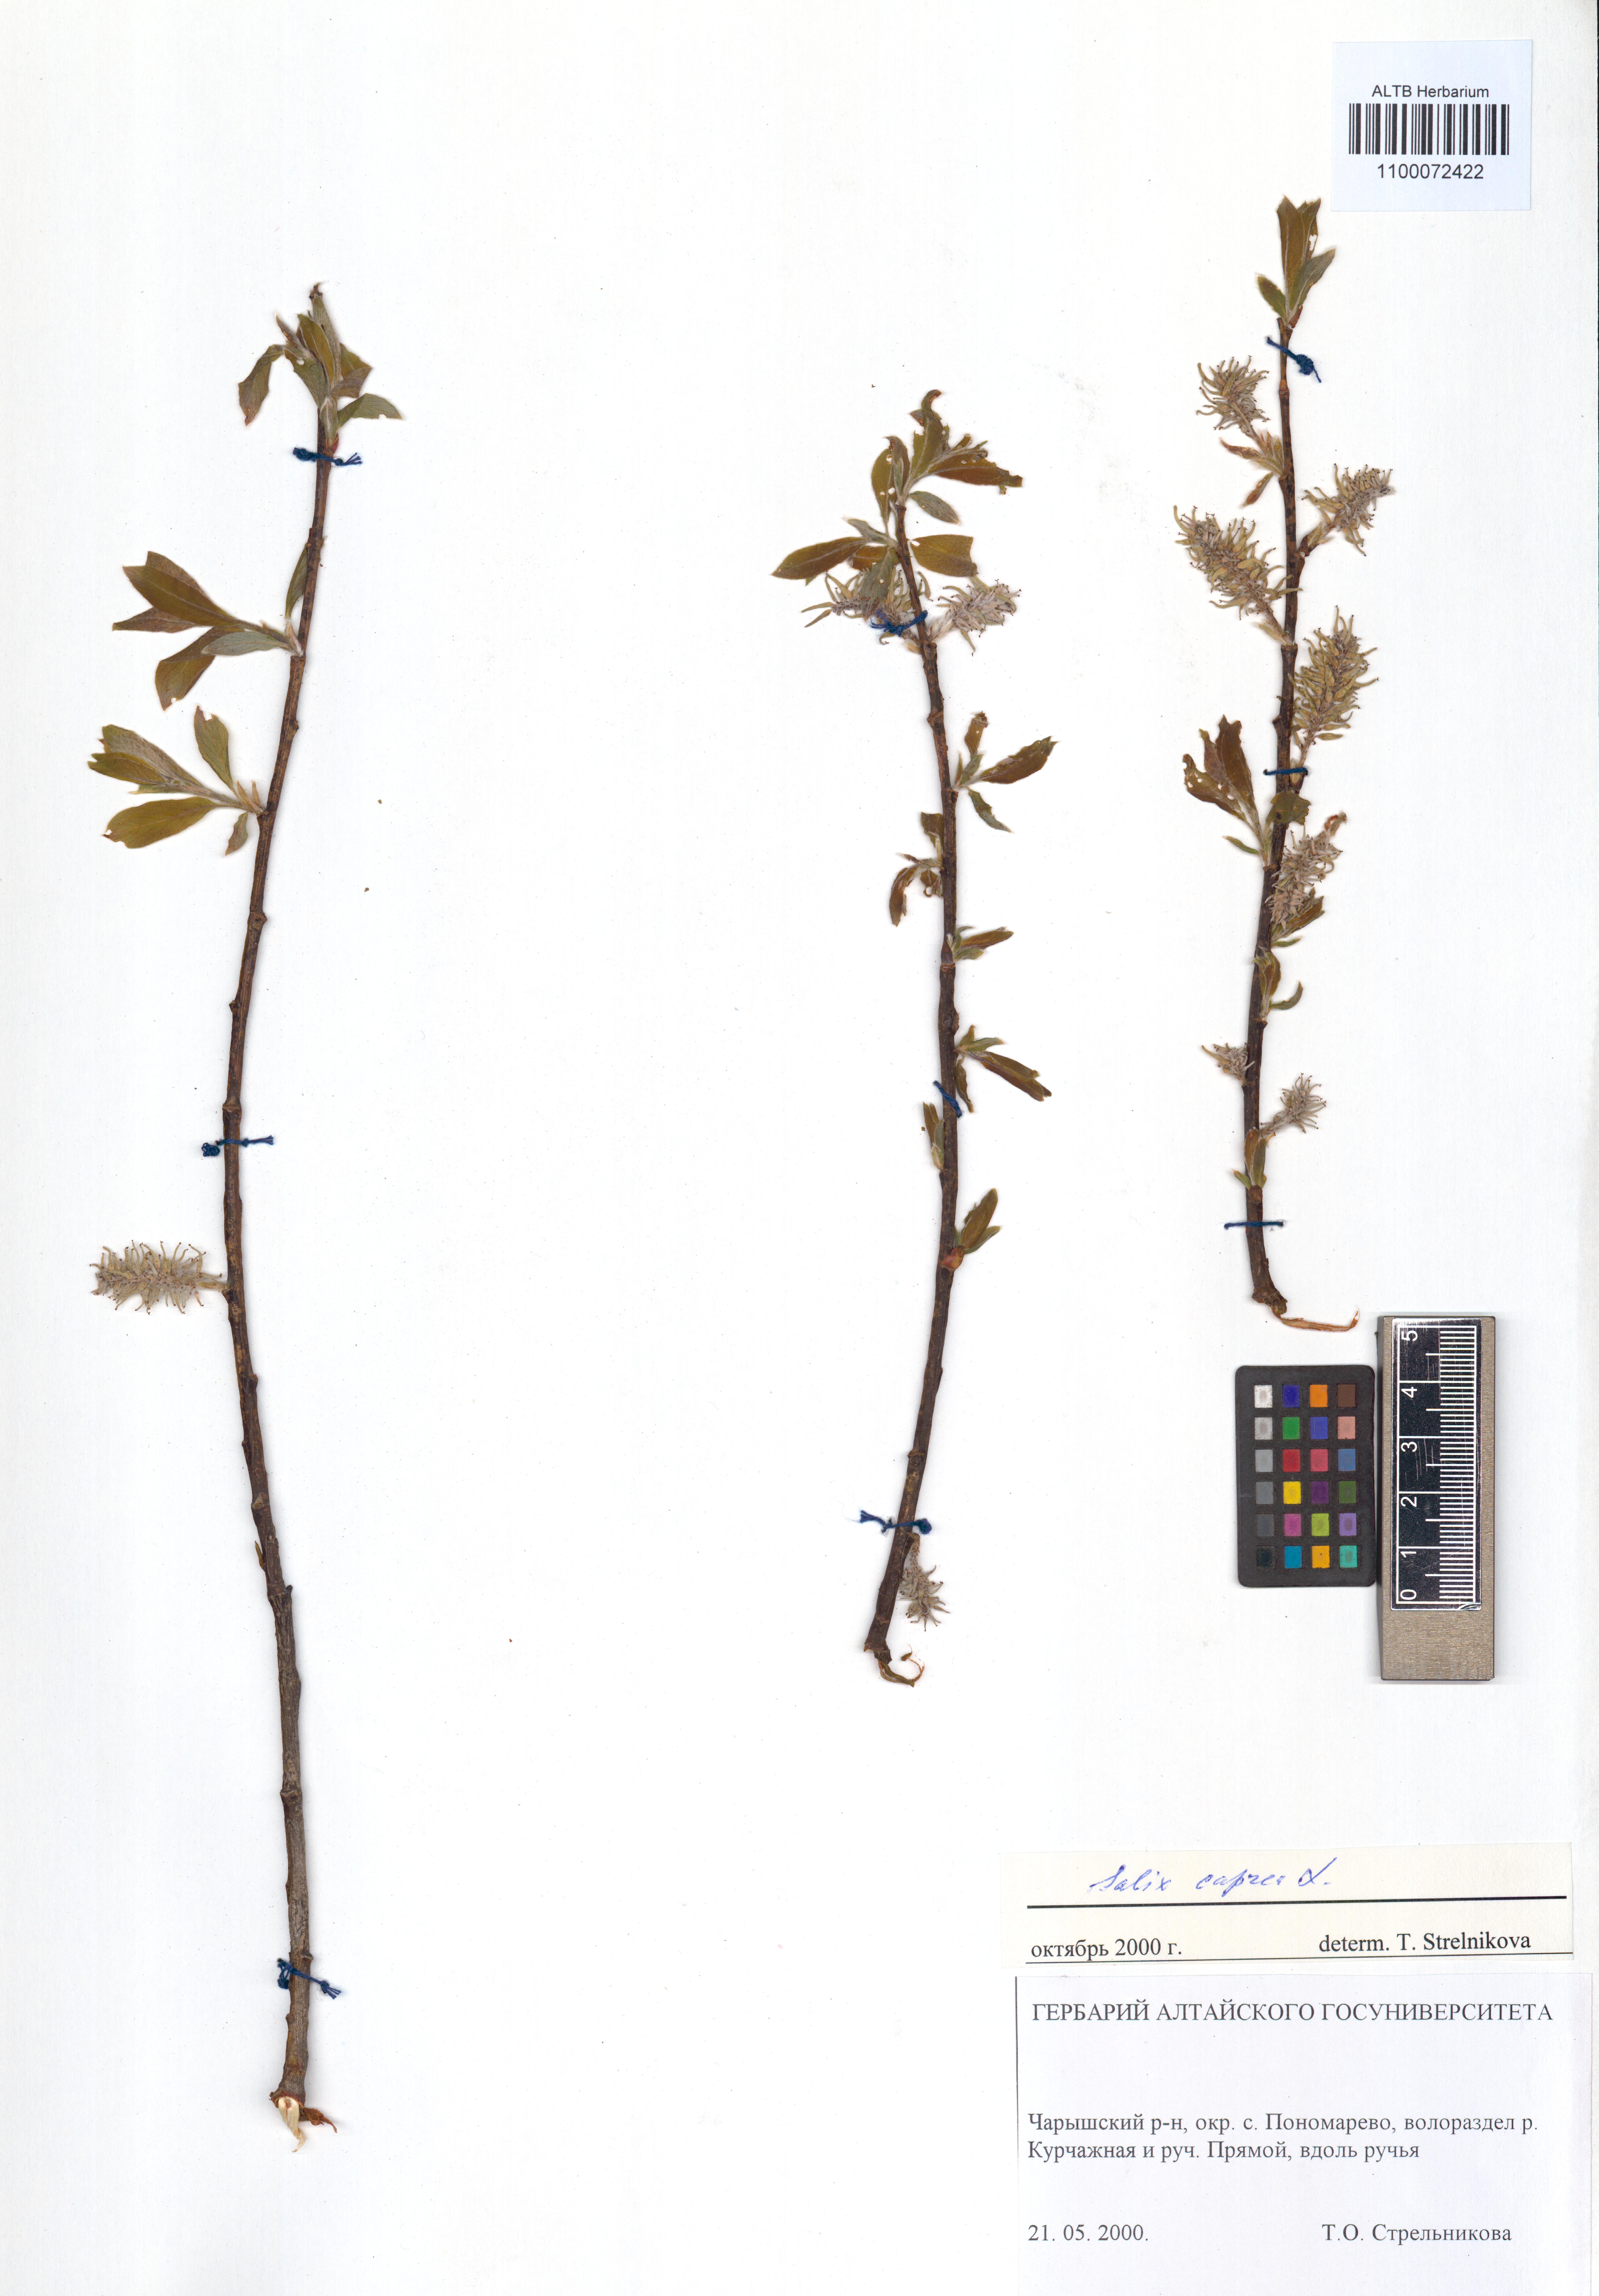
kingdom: Plantae
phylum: Tracheophyta
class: Magnoliopsida
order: Malpighiales
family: Salicaceae
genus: Salix
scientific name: Salix caprea
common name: Goat willow
